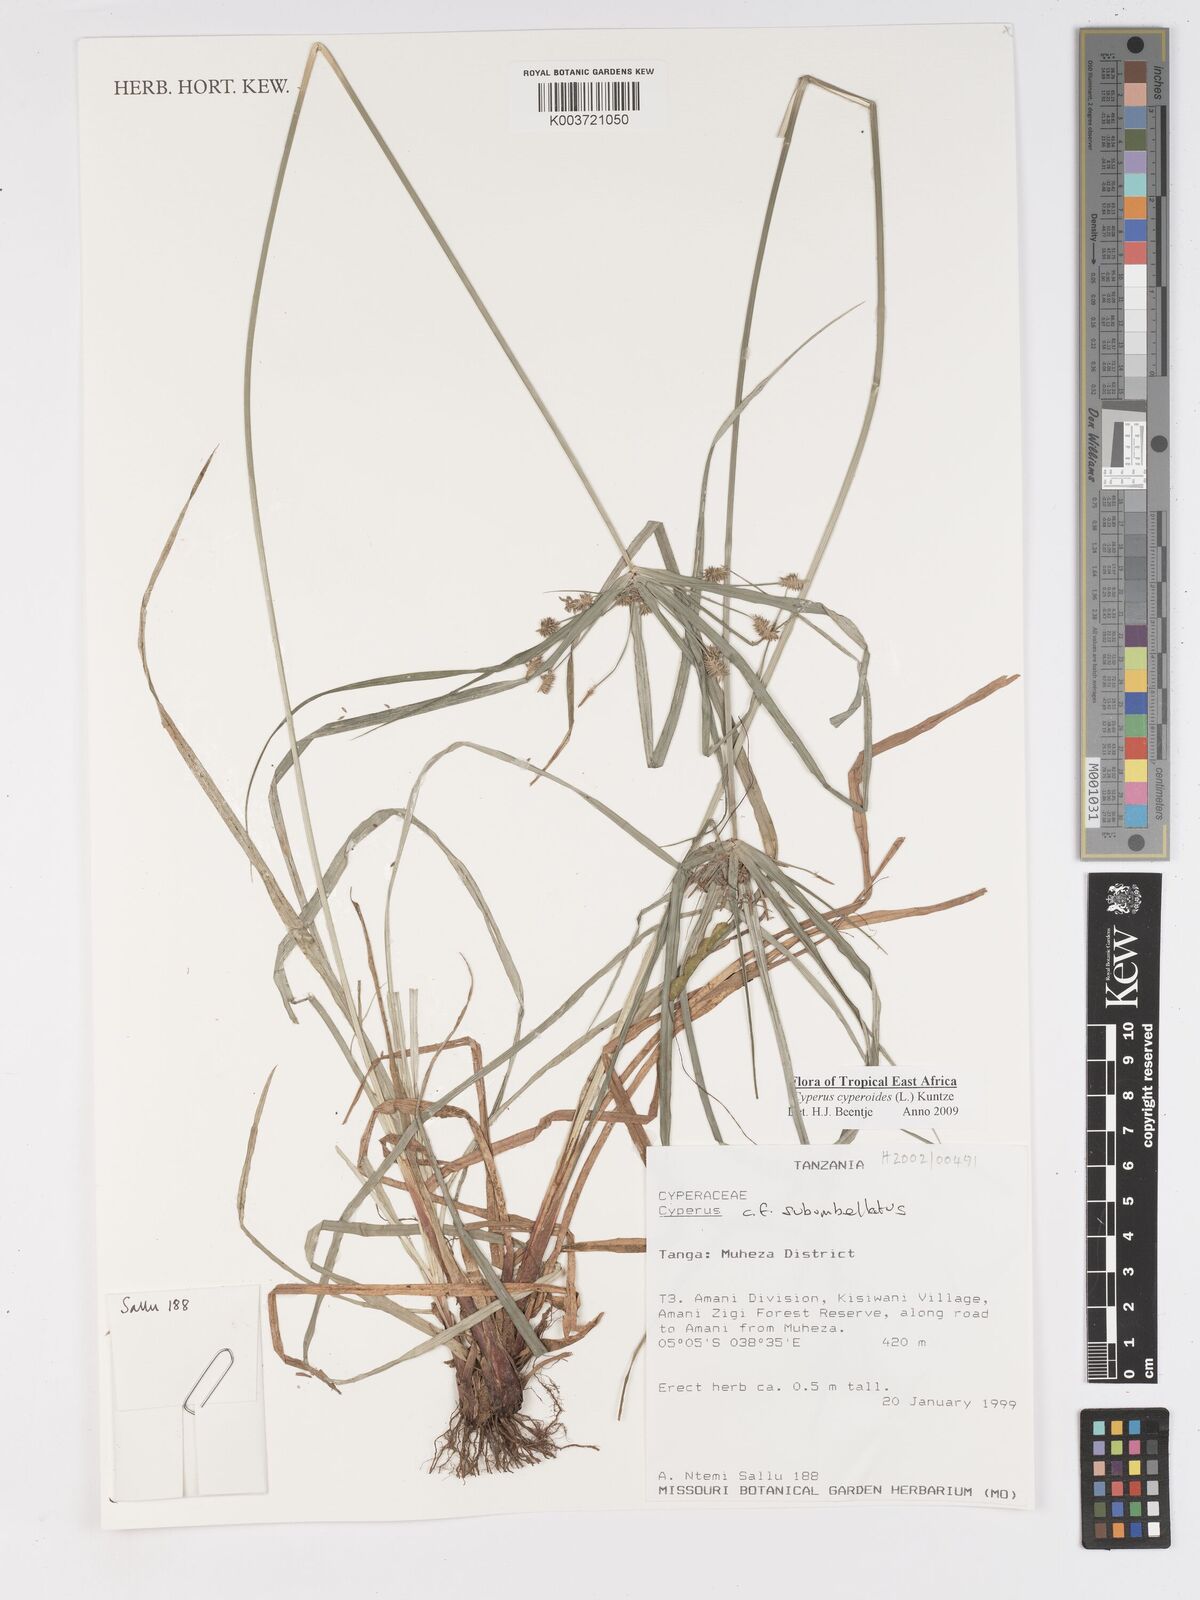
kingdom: Plantae
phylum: Tracheophyta
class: Liliopsida
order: Poales
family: Cyperaceae
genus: Cyperus
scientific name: Cyperus cyperoides
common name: Pacific island flat sedge
